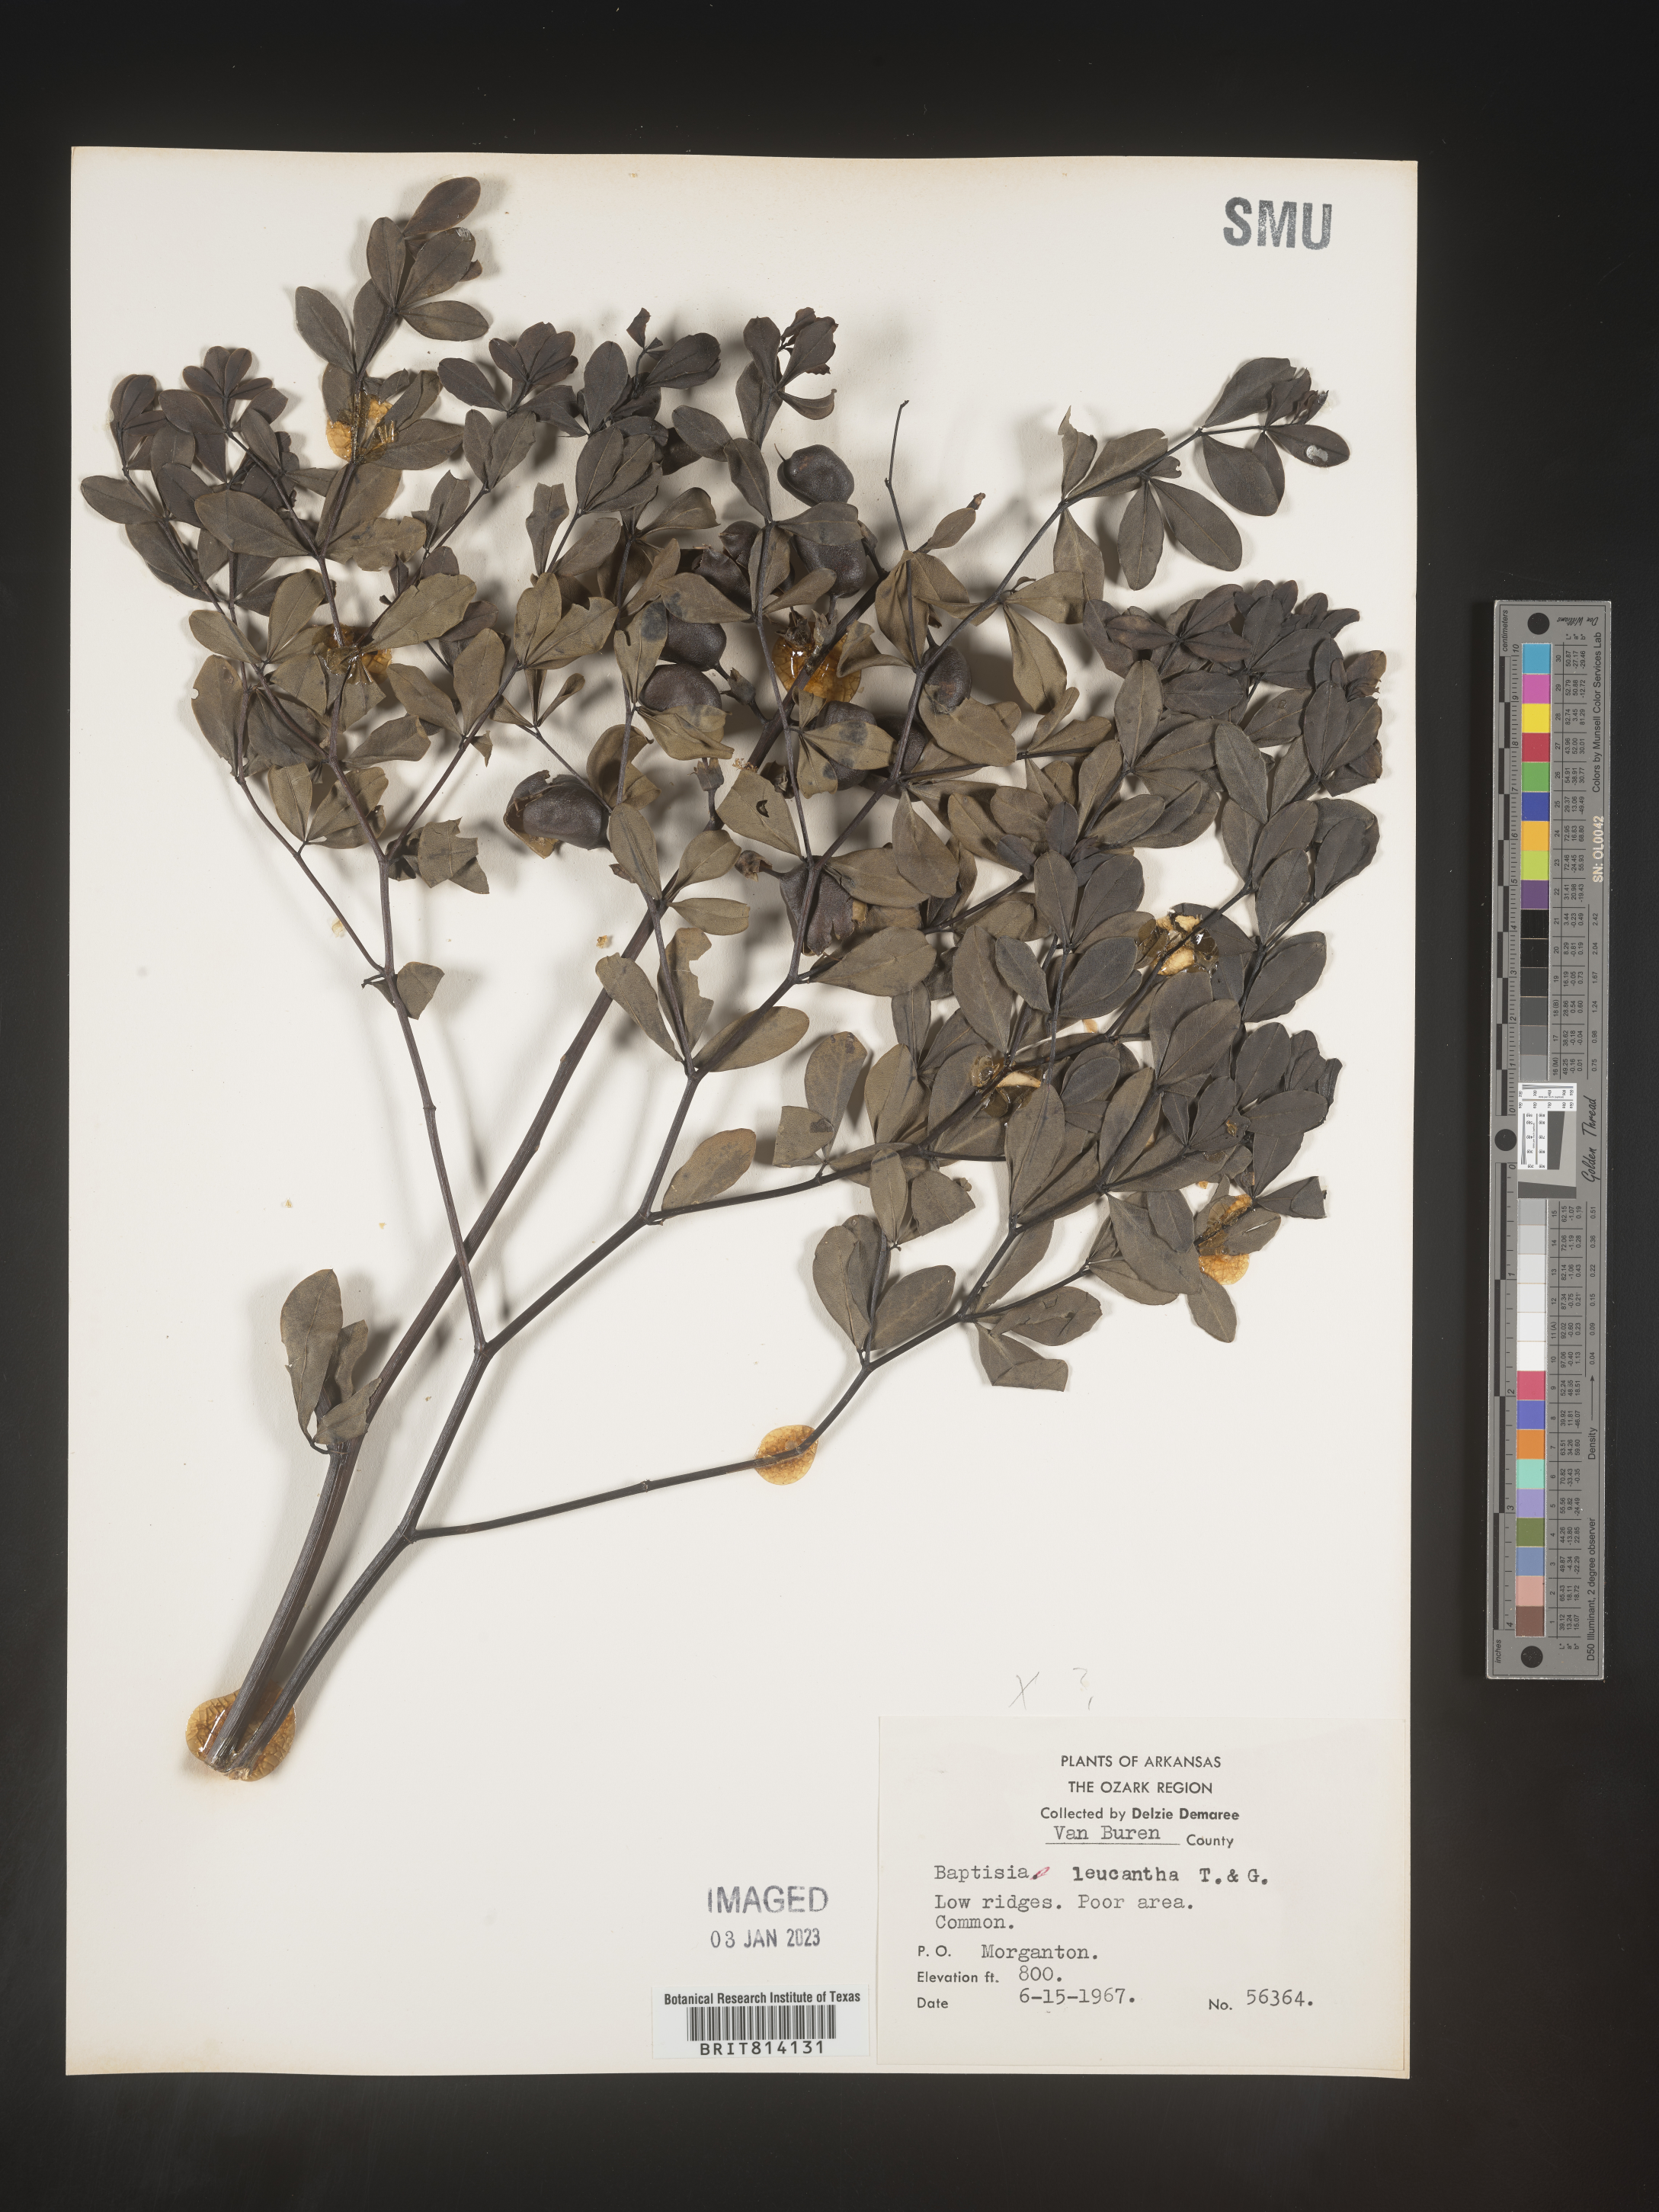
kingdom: Plantae
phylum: Tracheophyta
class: Magnoliopsida
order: Fabales
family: Fabaceae
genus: Baptisia
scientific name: Baptisia
